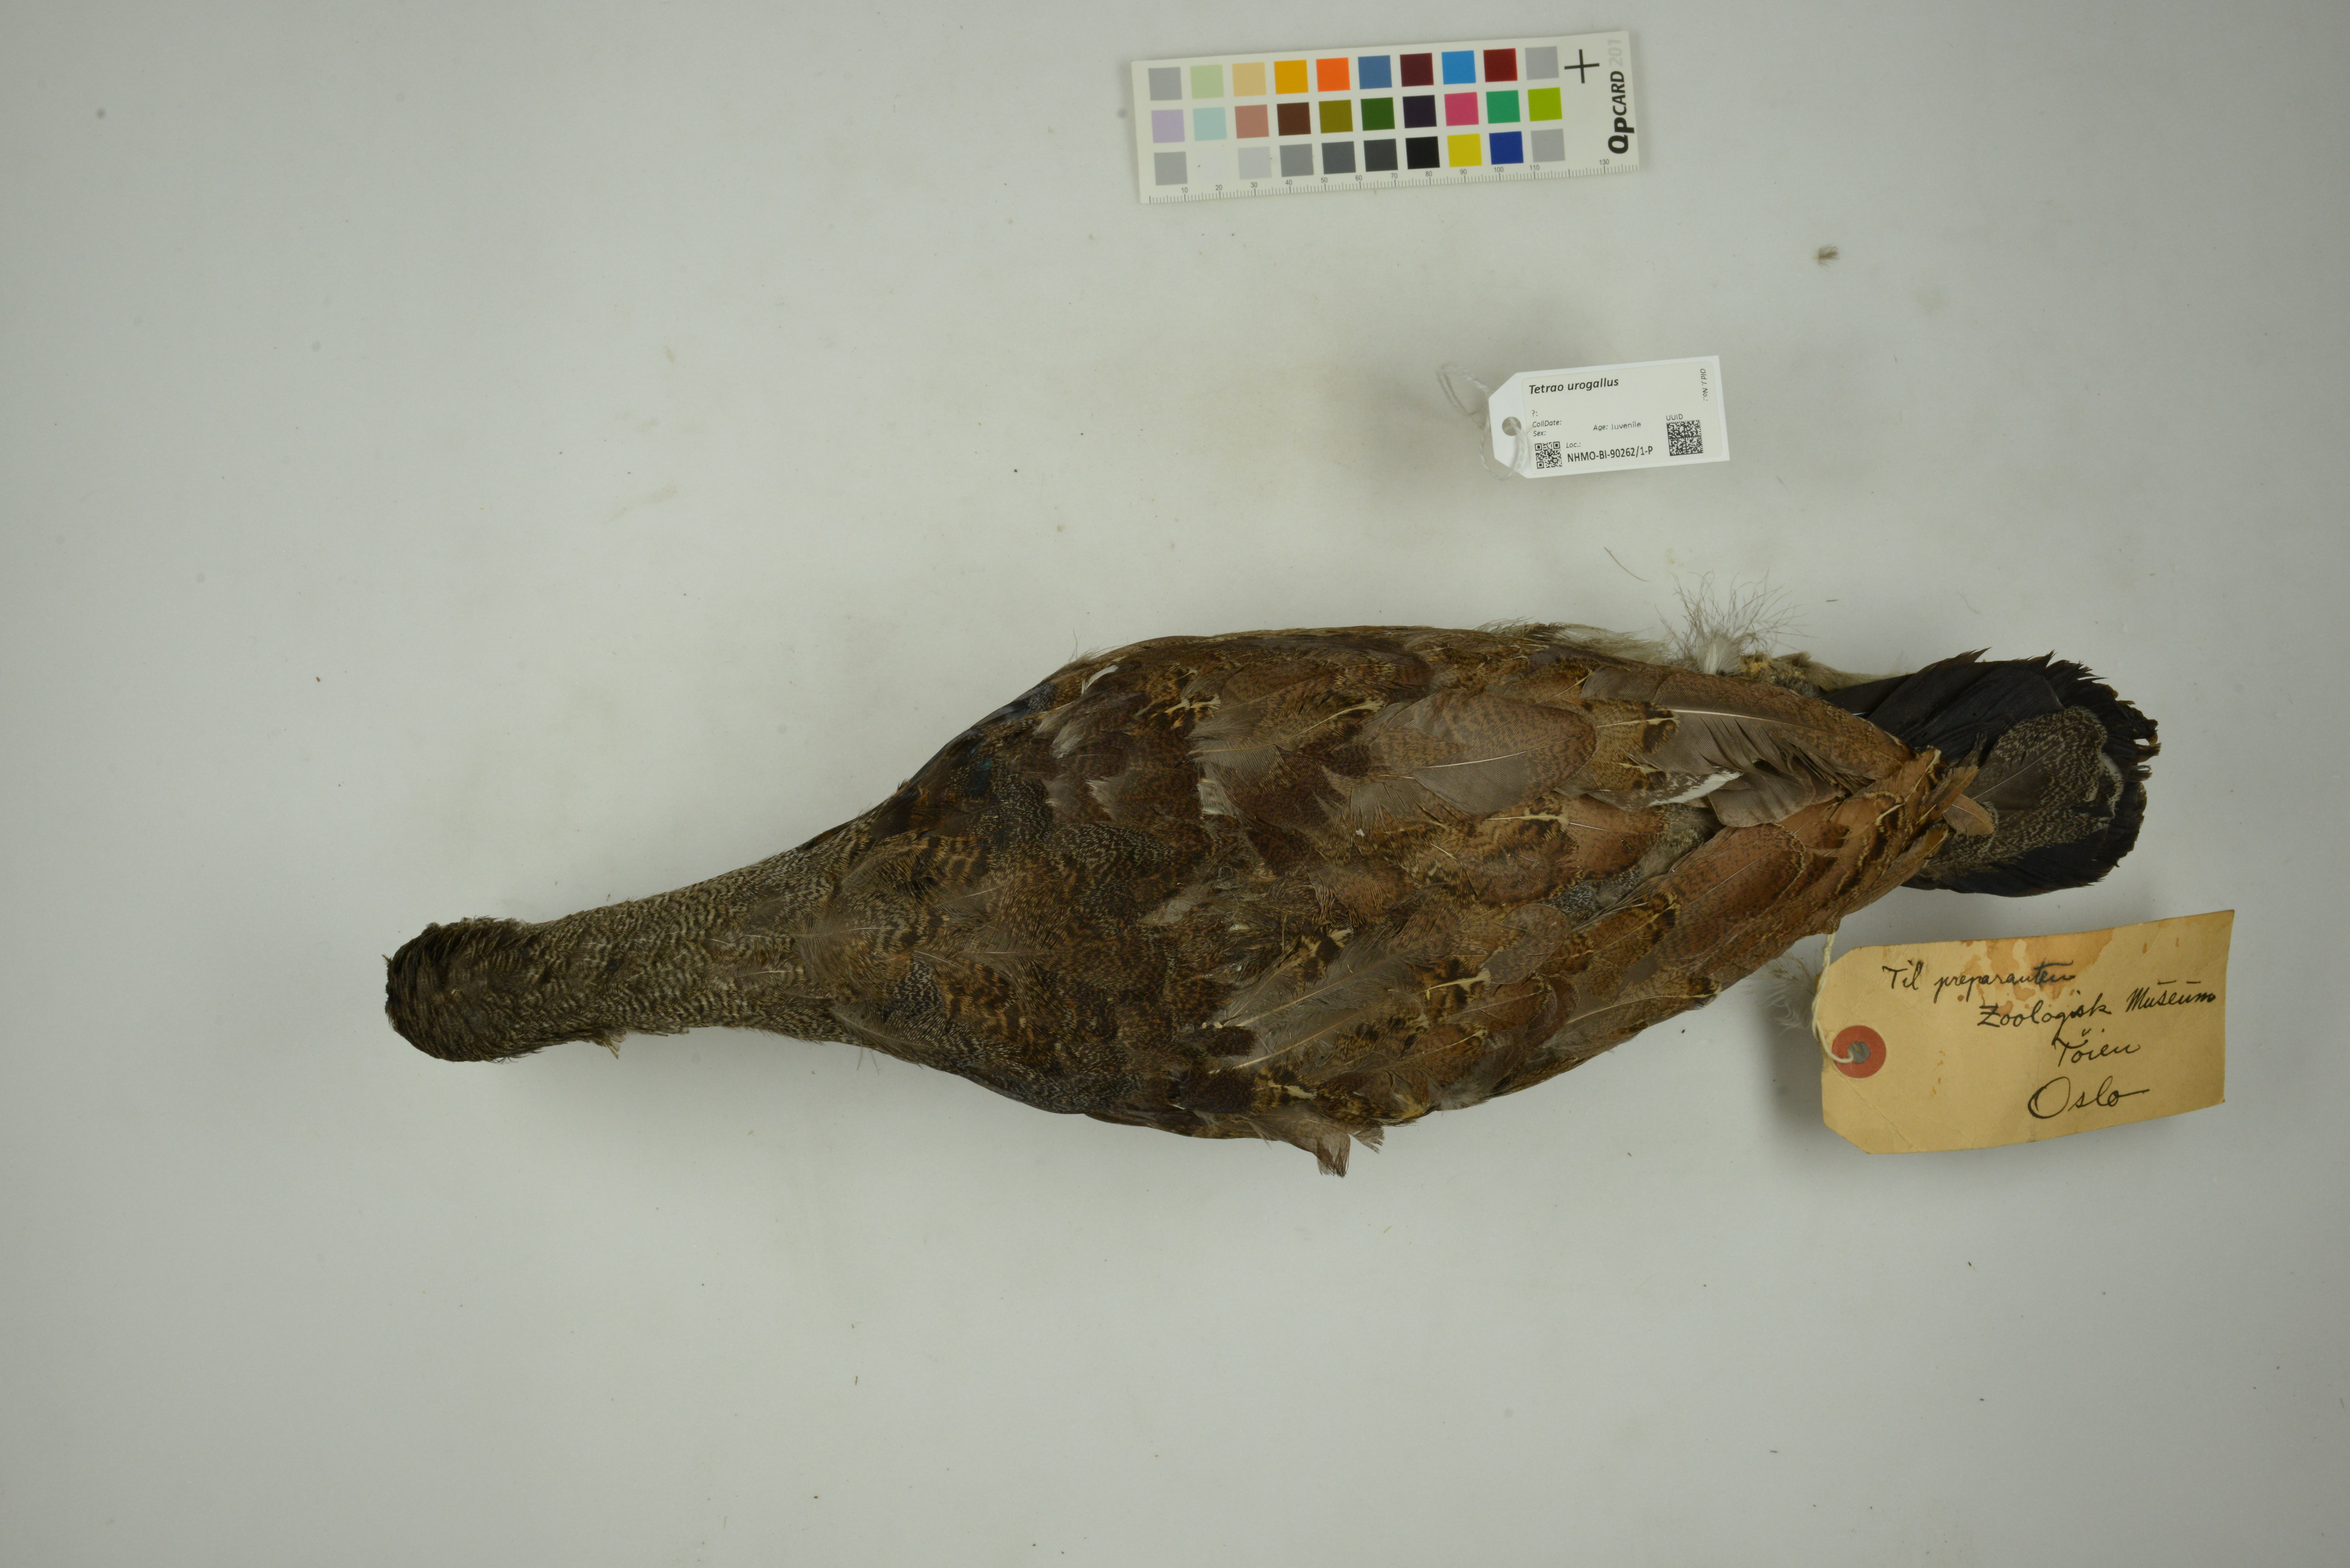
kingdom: Animalia
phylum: Chordata
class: Aves
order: Galliformes
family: Phasianidae
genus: Tetrao
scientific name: Tetrao urogallus
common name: Western capercaillie
